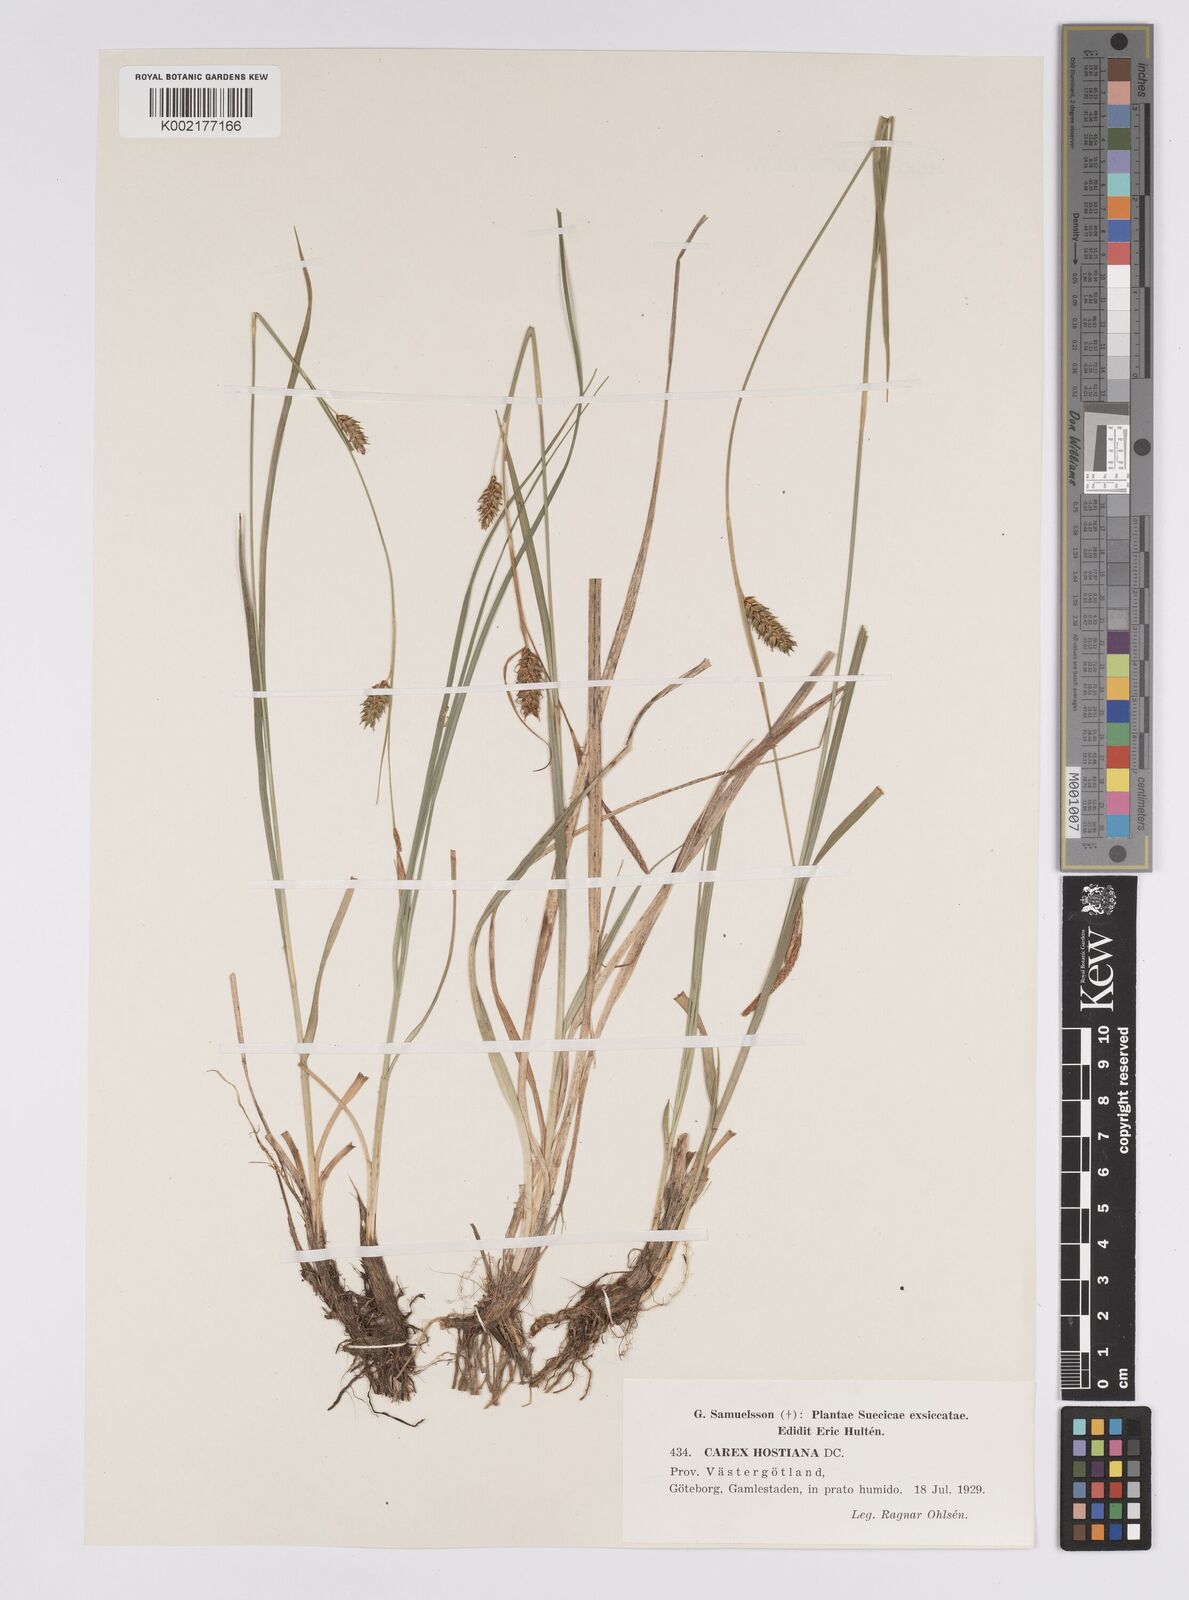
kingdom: Plantae
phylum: Tracheophyta
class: Liliopsida
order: Poales
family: Cyperaceae
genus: Carex
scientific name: Carex hostiana
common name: Tawny sedge
